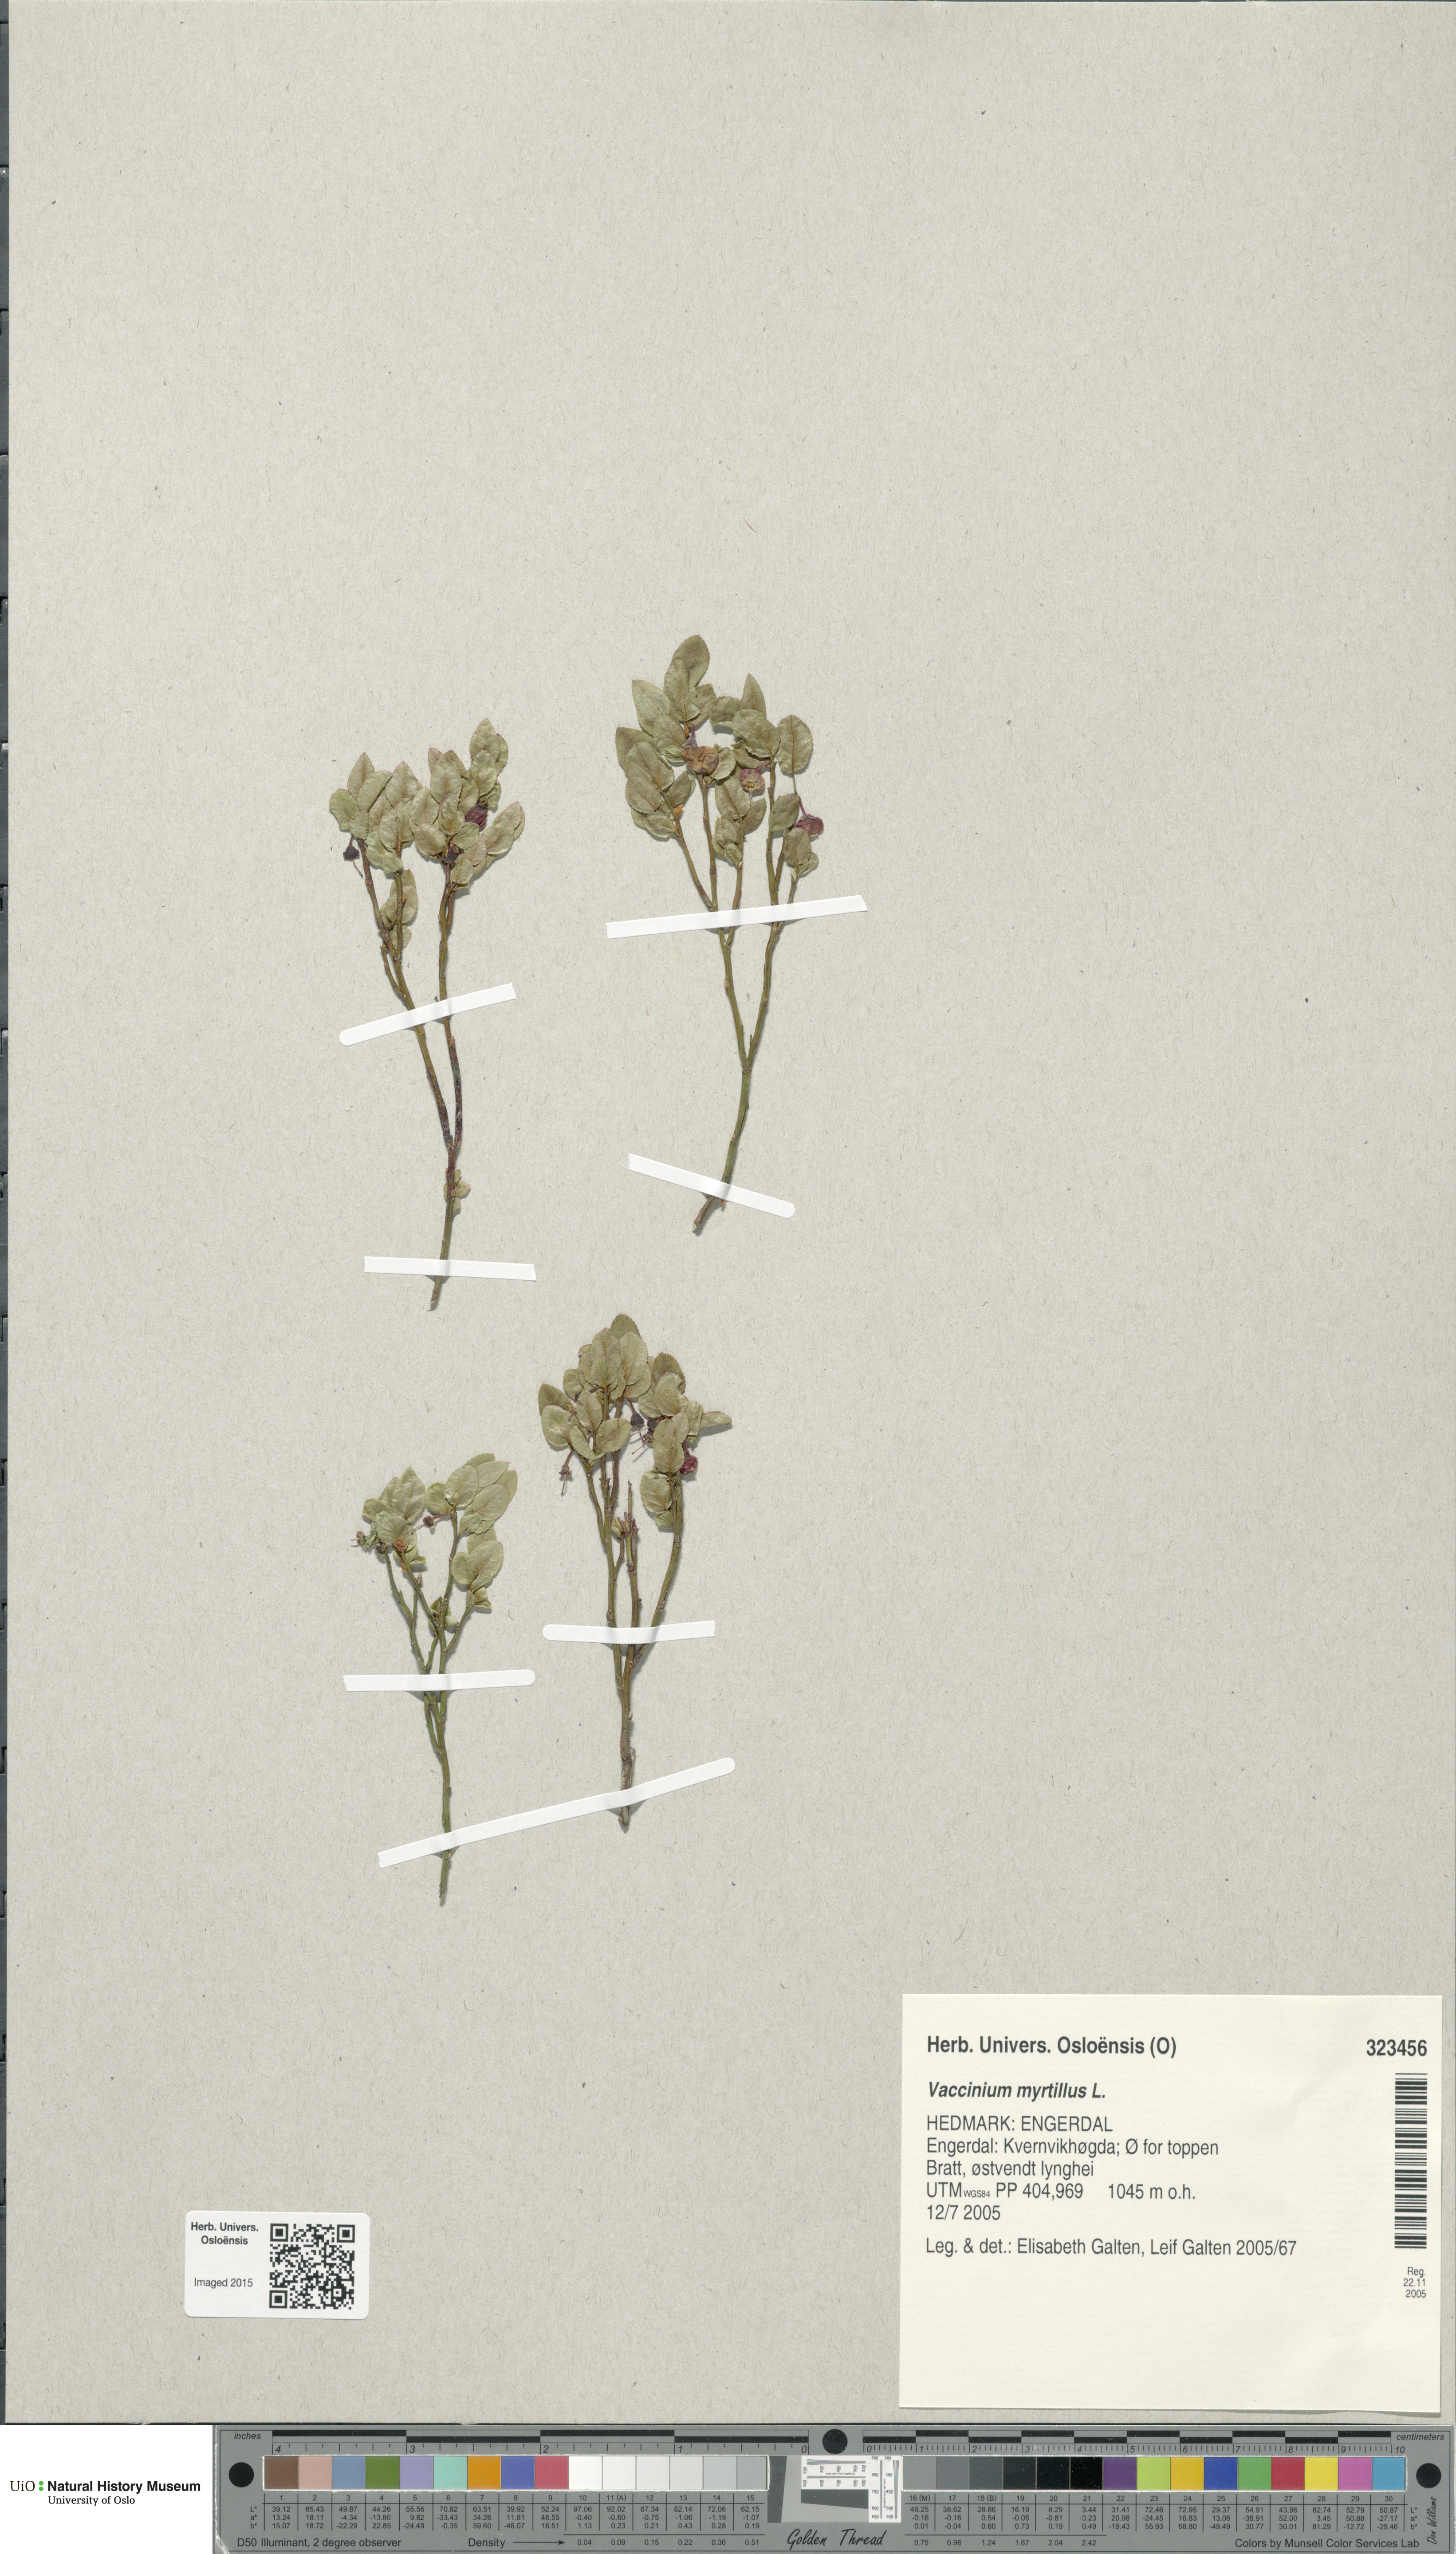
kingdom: Plantae
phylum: Tracheophyta
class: Magnoliopsida
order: Ericales
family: Ericaceae
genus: Vaccinium
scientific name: Vaccinium myrtillus
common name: Bilberry
